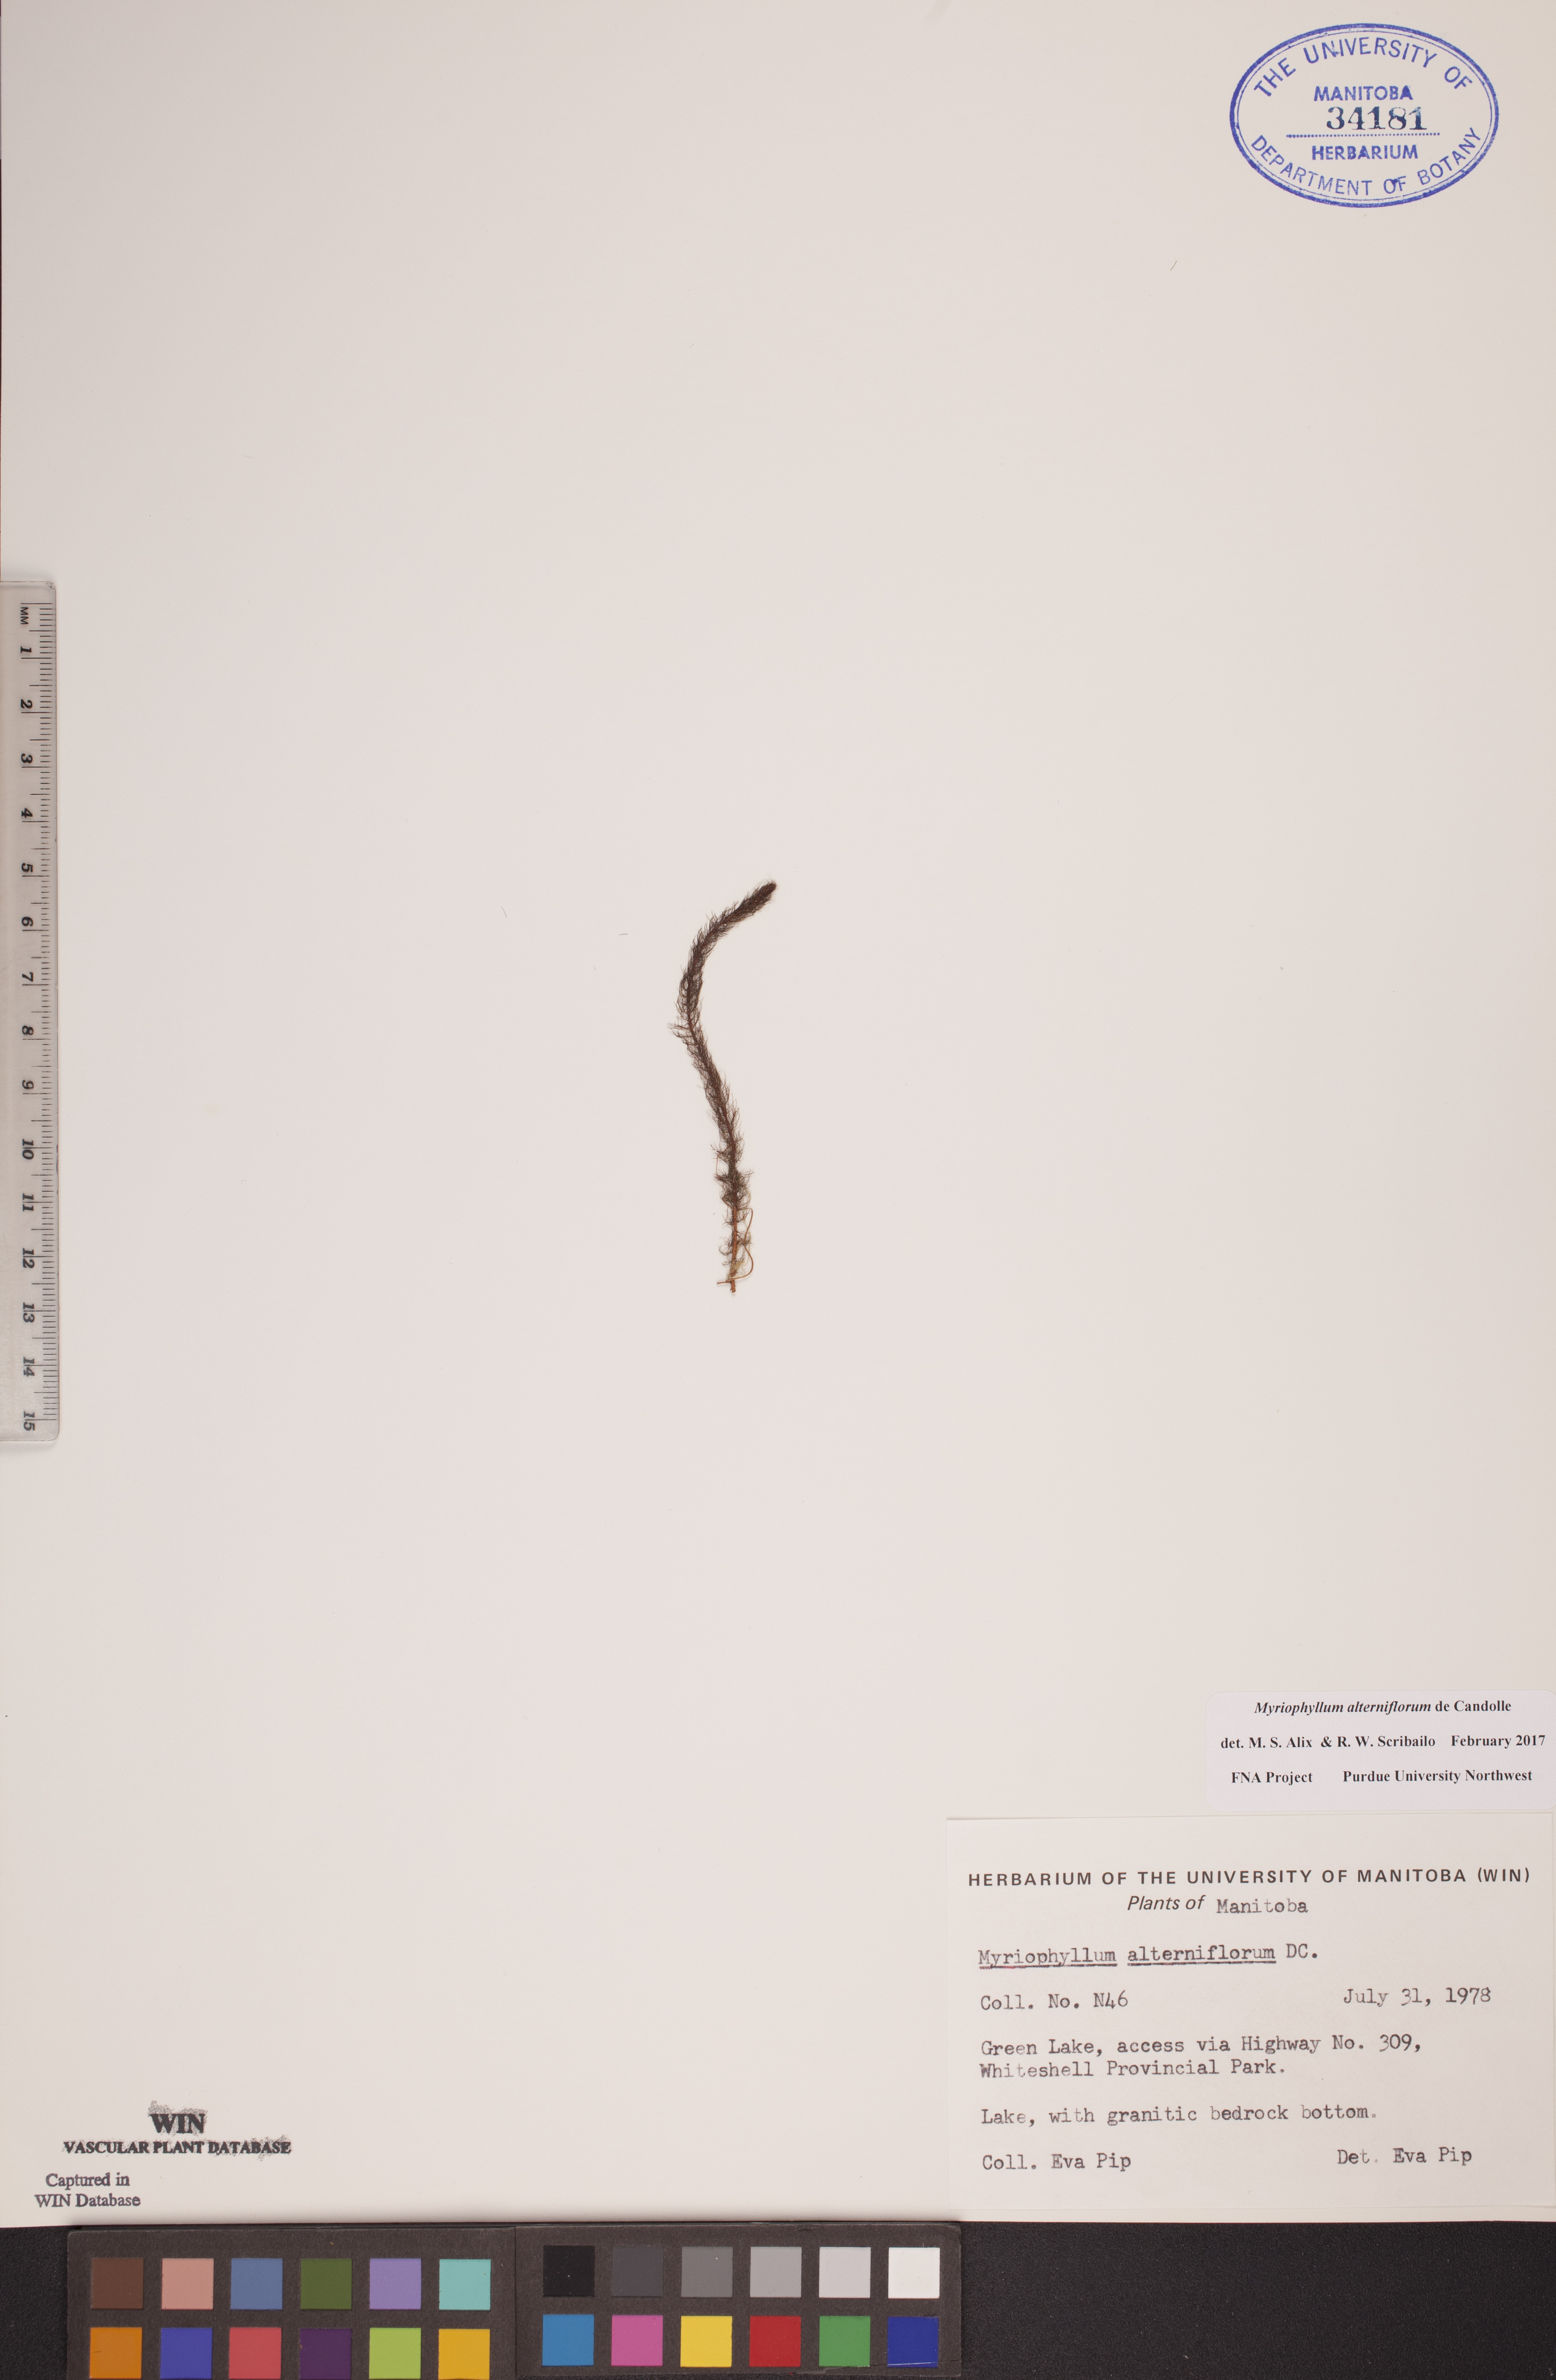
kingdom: Plantae
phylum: Tracheophyta
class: Magnoliopsida
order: Saxifragales
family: Haloragaceae
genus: Myriophyllum
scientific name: Myriophyllum alterniflorum
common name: Alternate water-milfoil
